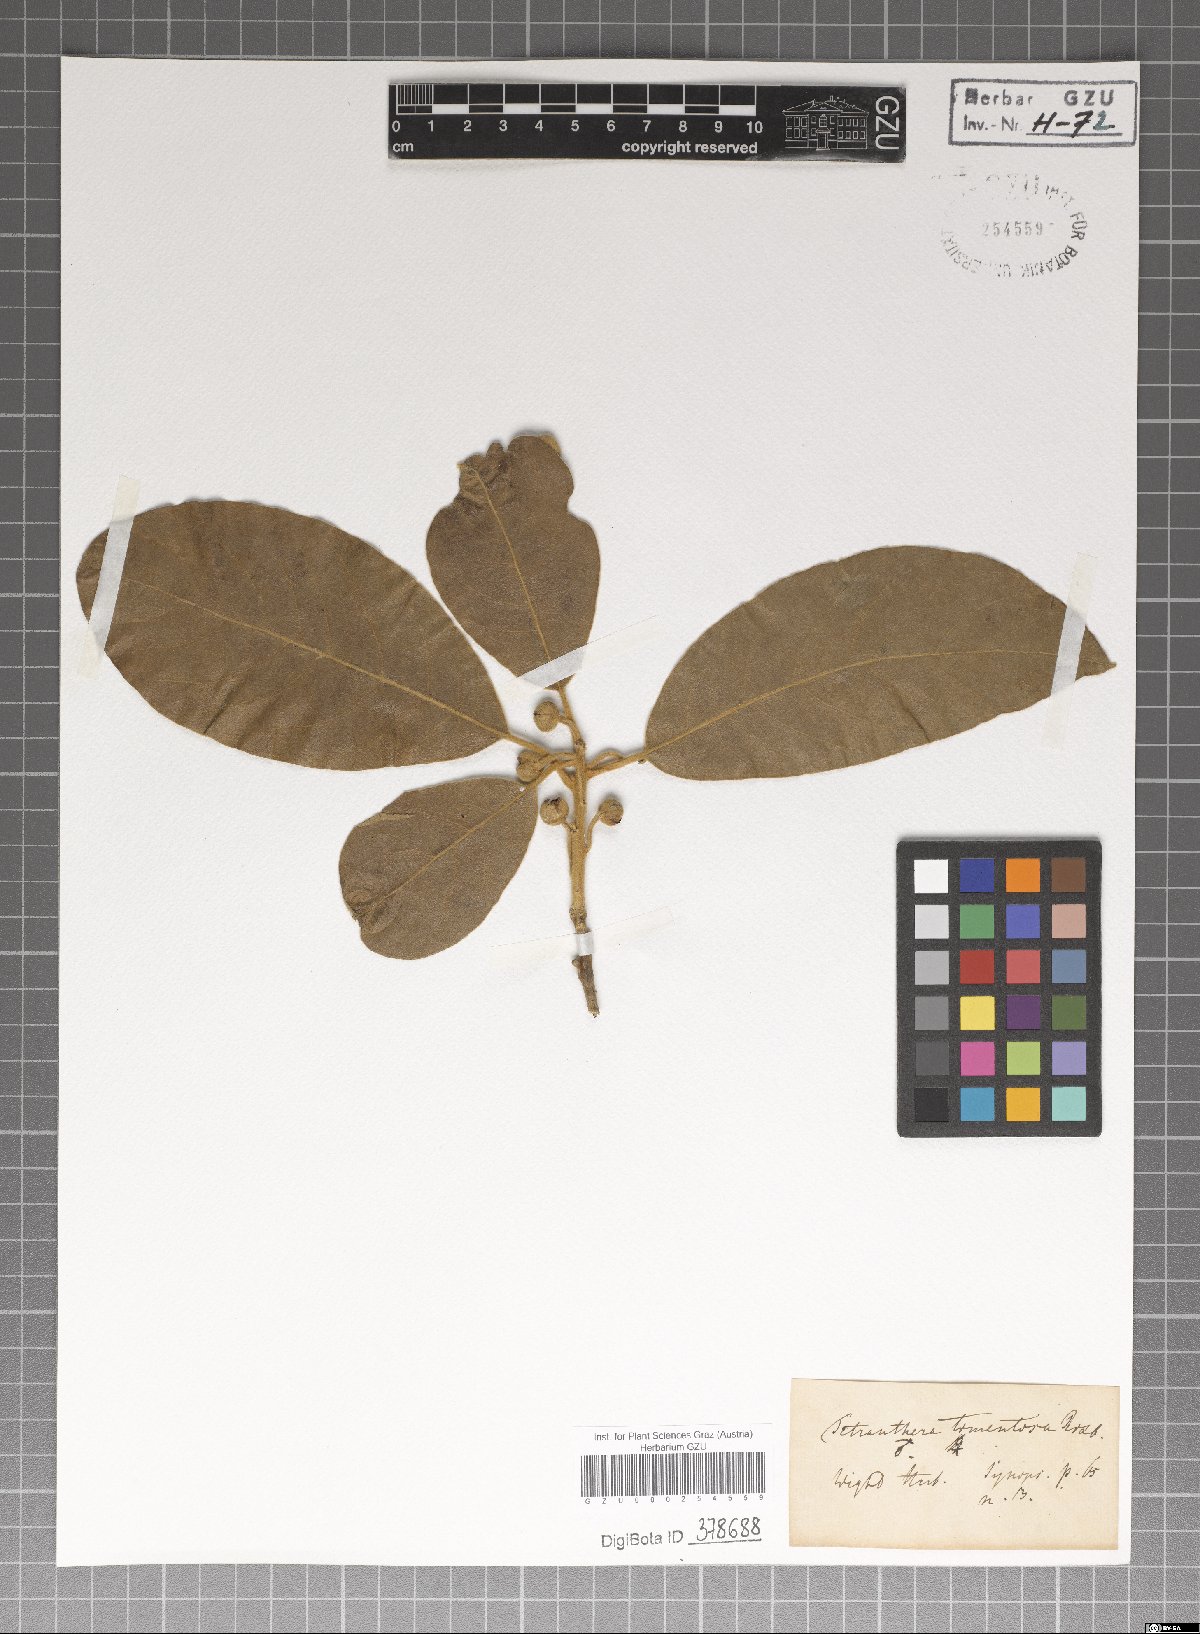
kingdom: Plantae
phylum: Tracheophyta
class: Magnoliopsida
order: Laurales
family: Lauraceae
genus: Litsea
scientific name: Litsea glutinosa
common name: Indian-laurel
